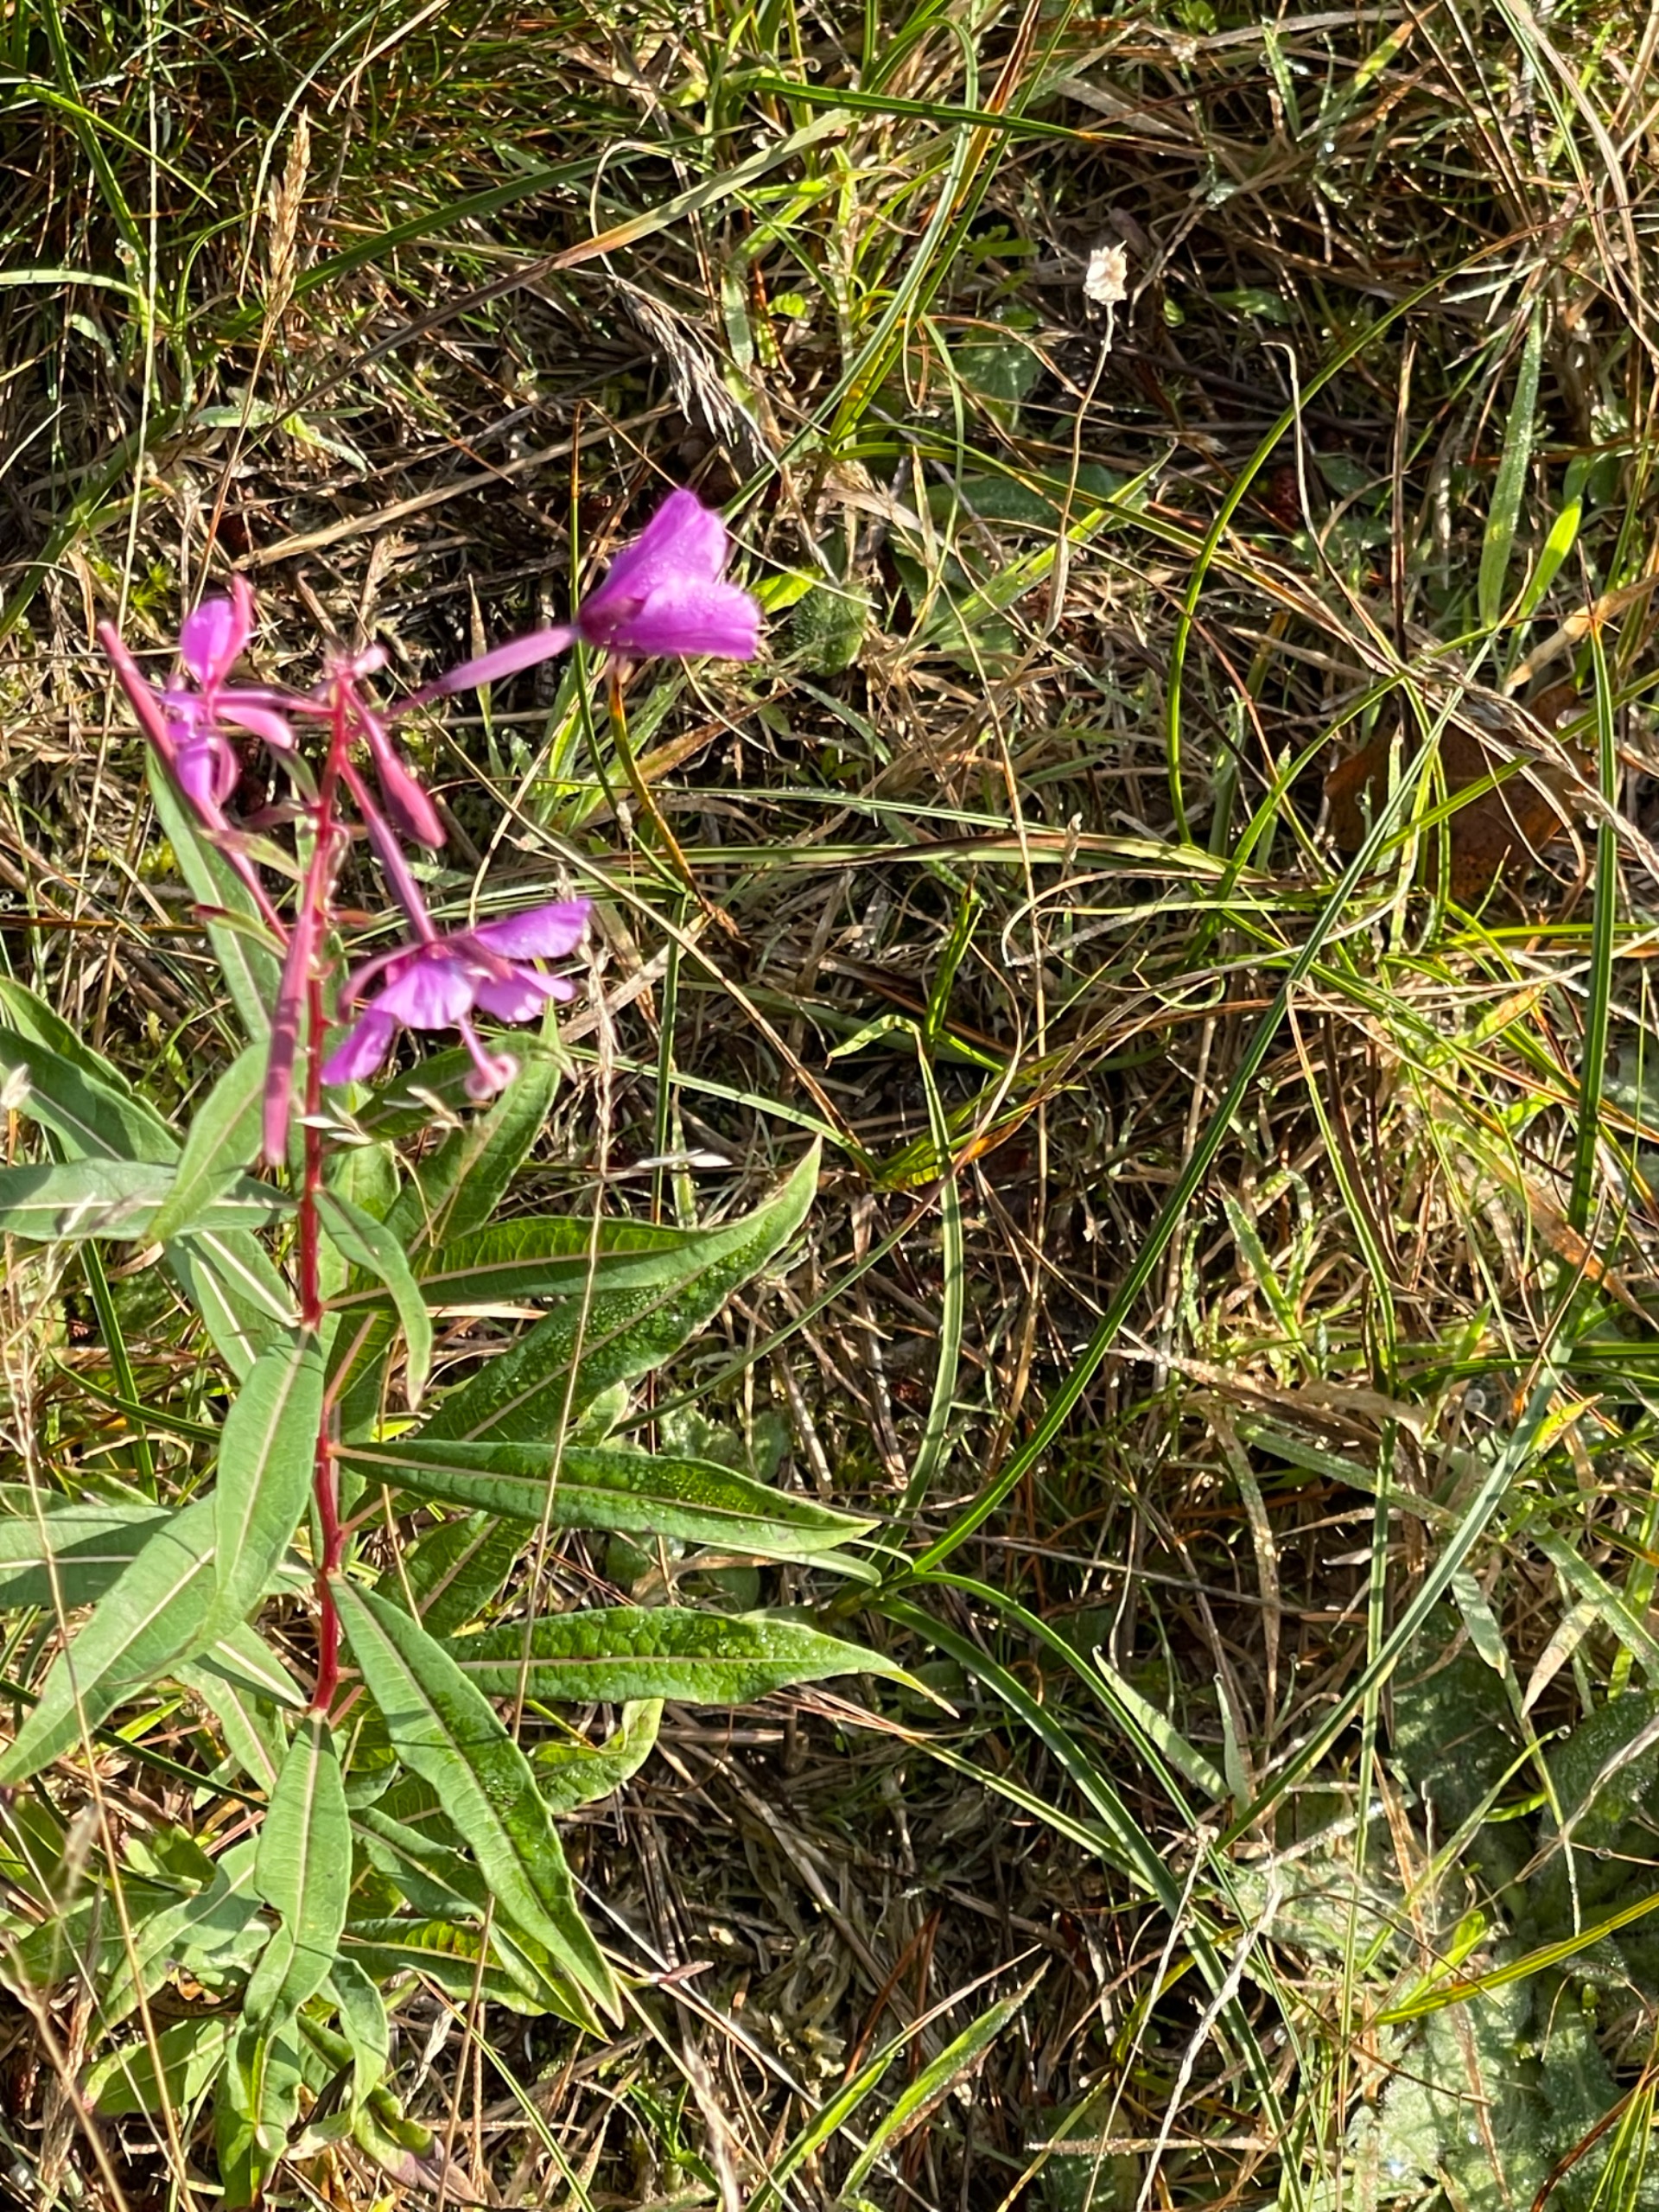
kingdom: Plantae
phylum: Tracheophyta
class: Magnoliopsida
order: Myrtales
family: Onagraceae
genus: Chamaenerion
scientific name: Chamaenerion angustifolium
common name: Gederams
